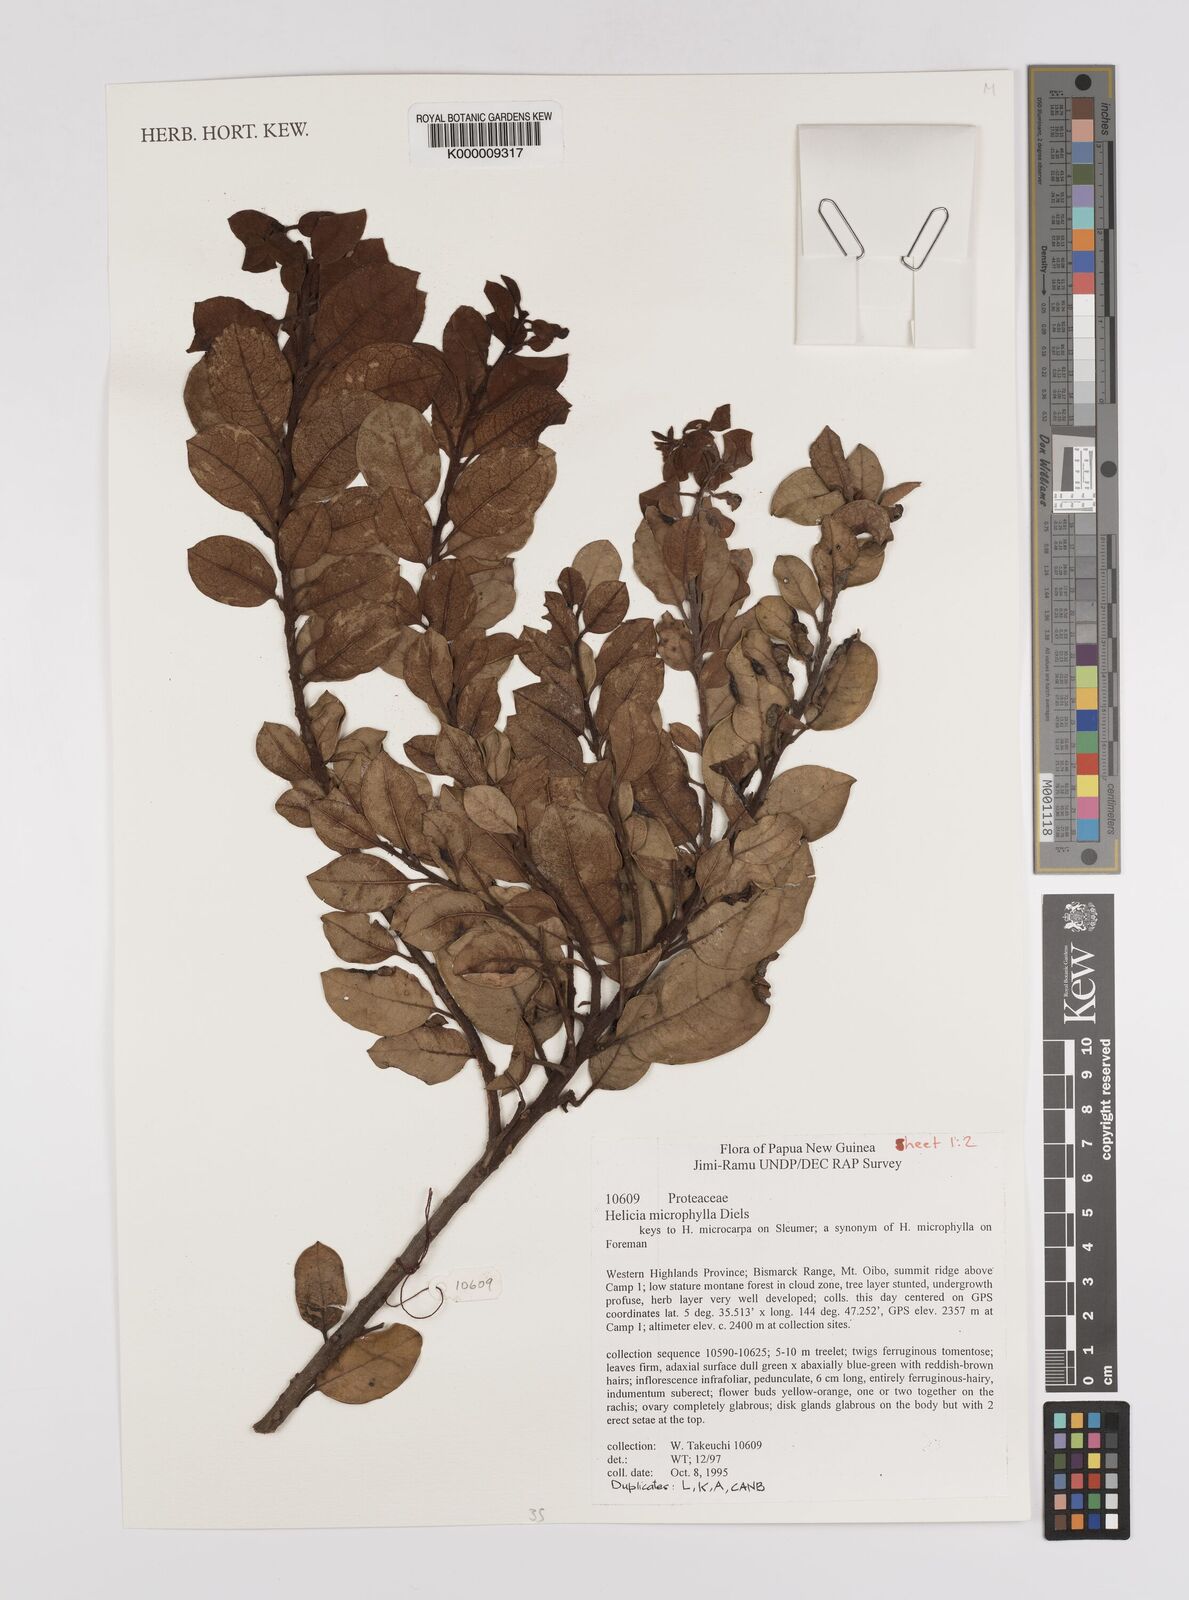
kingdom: Plantae
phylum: Tracheophyta
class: Magnoliopsida
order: Proteales
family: Proteaceae
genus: Helicia
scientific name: Helicia microphylla
